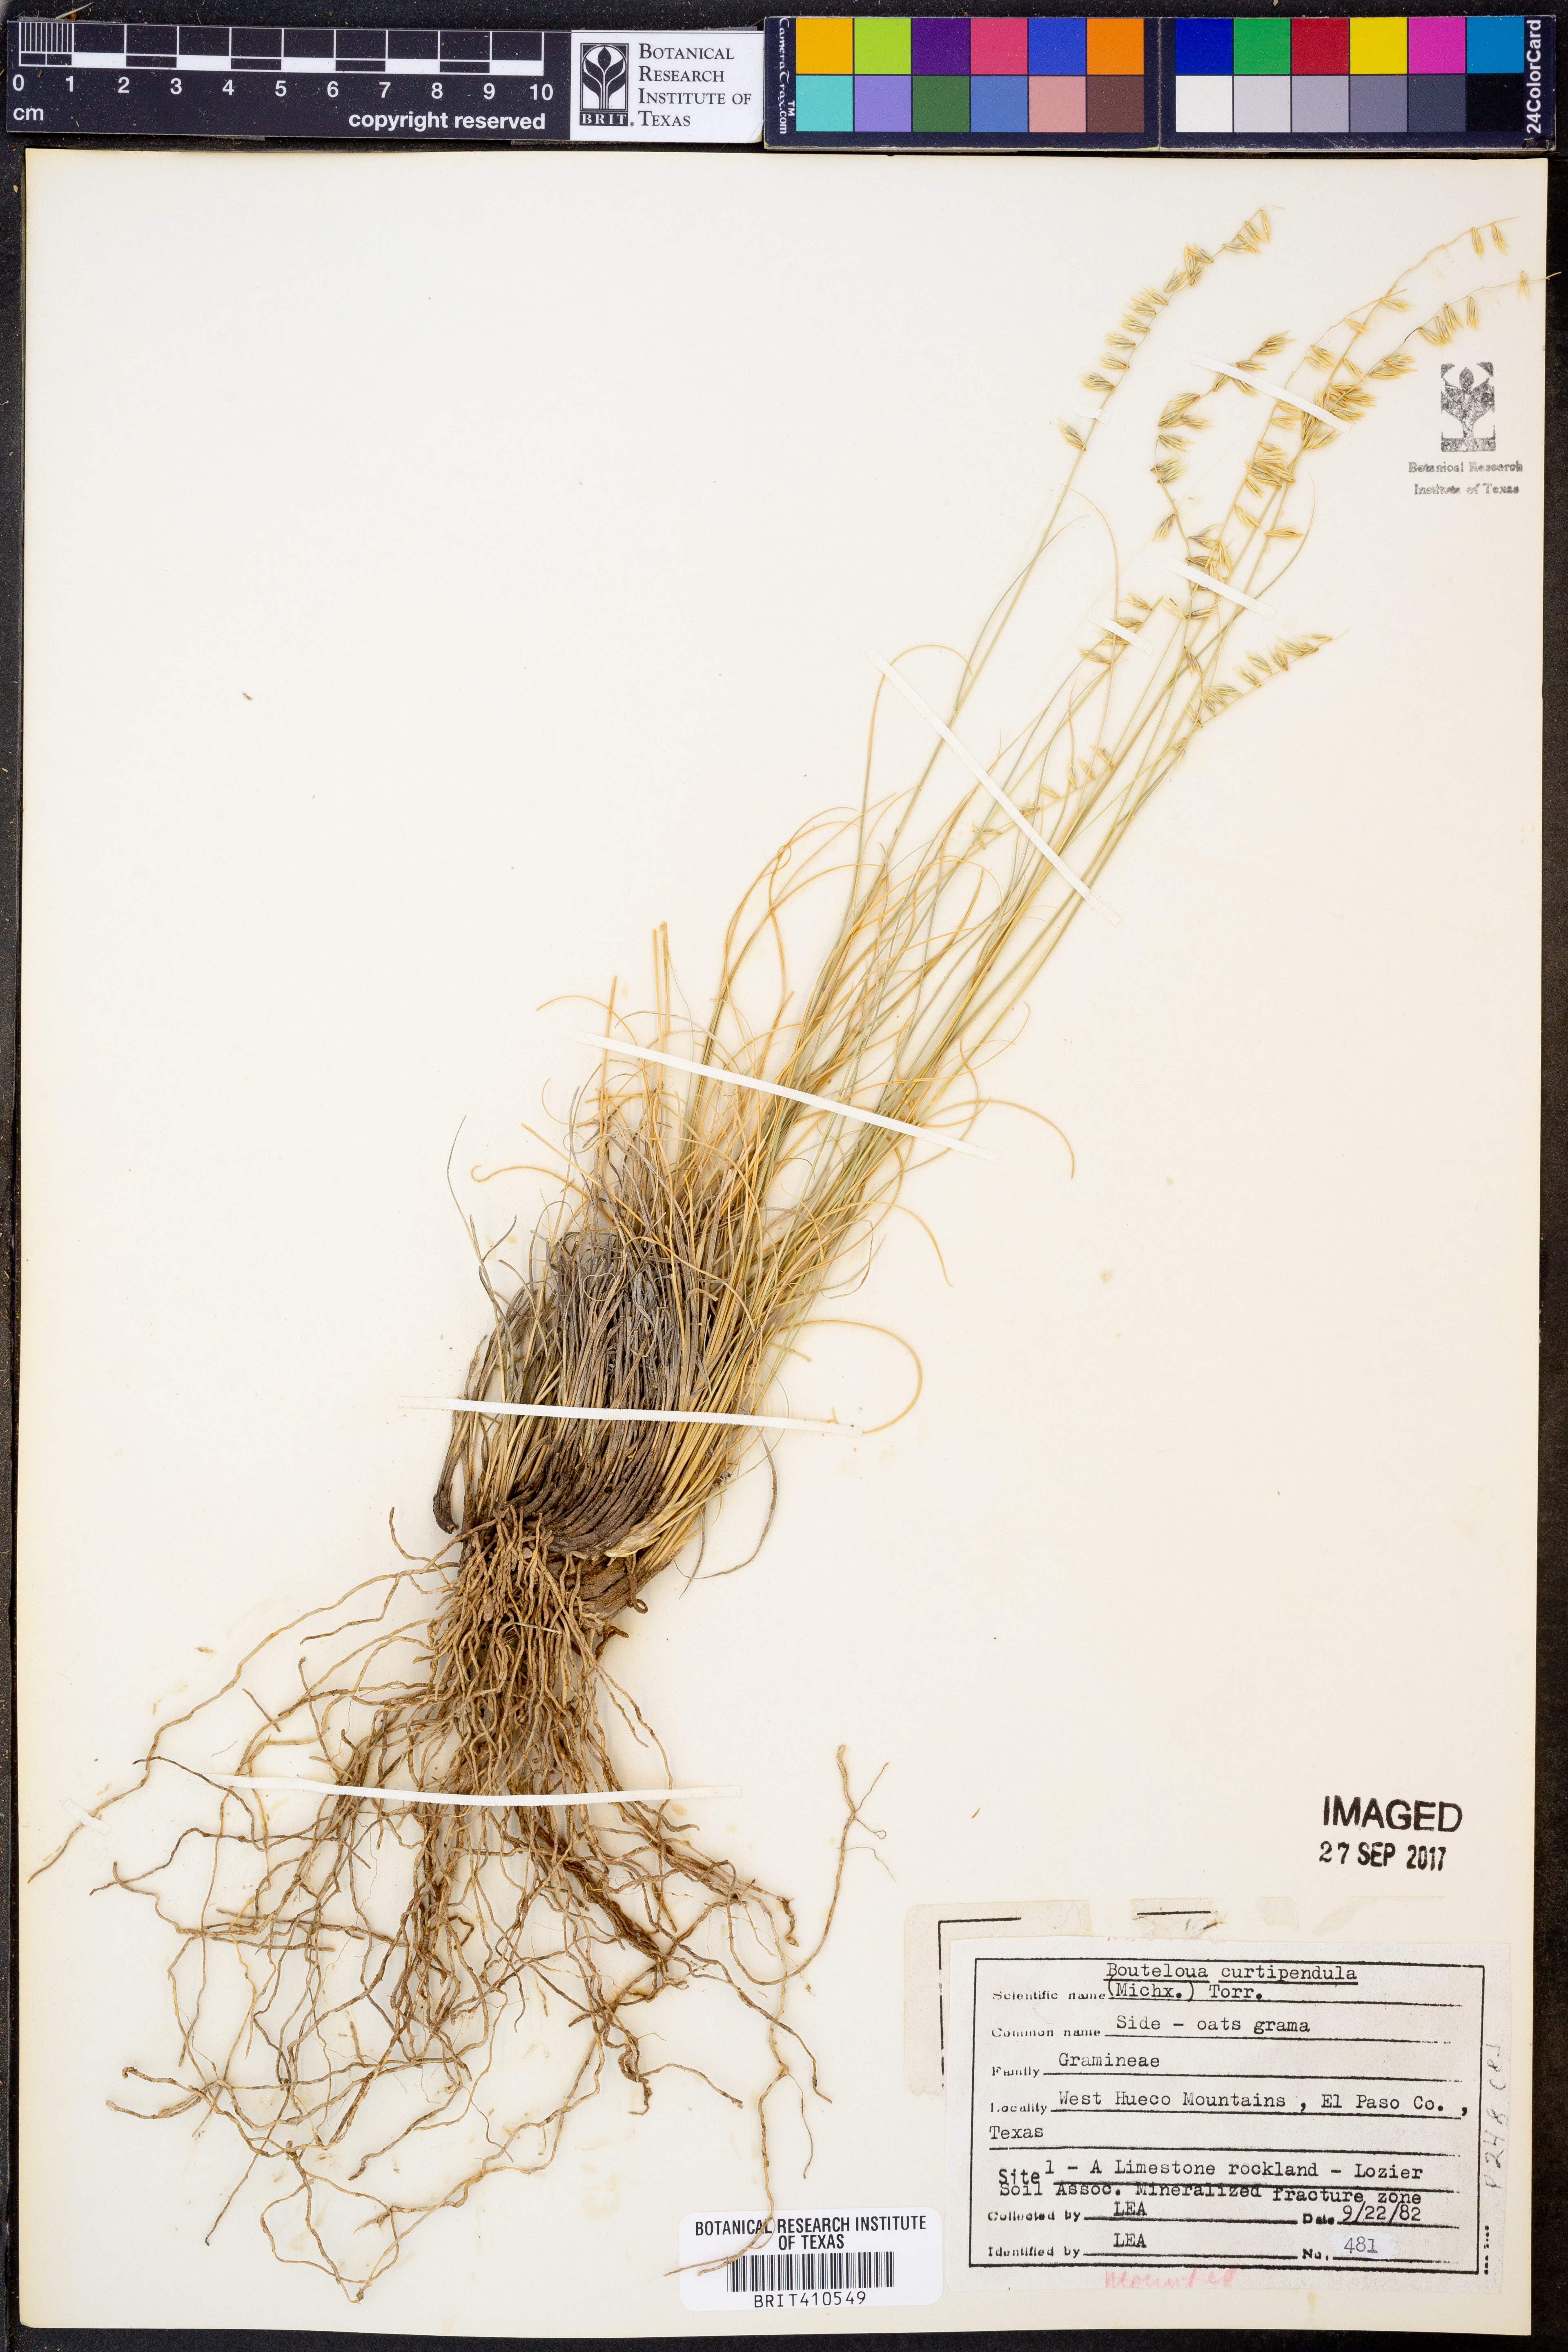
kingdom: Plantae
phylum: Tracheophyta
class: Liliopsida
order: Poales
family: Poaceae
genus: Bouteloua
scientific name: Bouteloua curtipendula
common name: Side-oats grama
